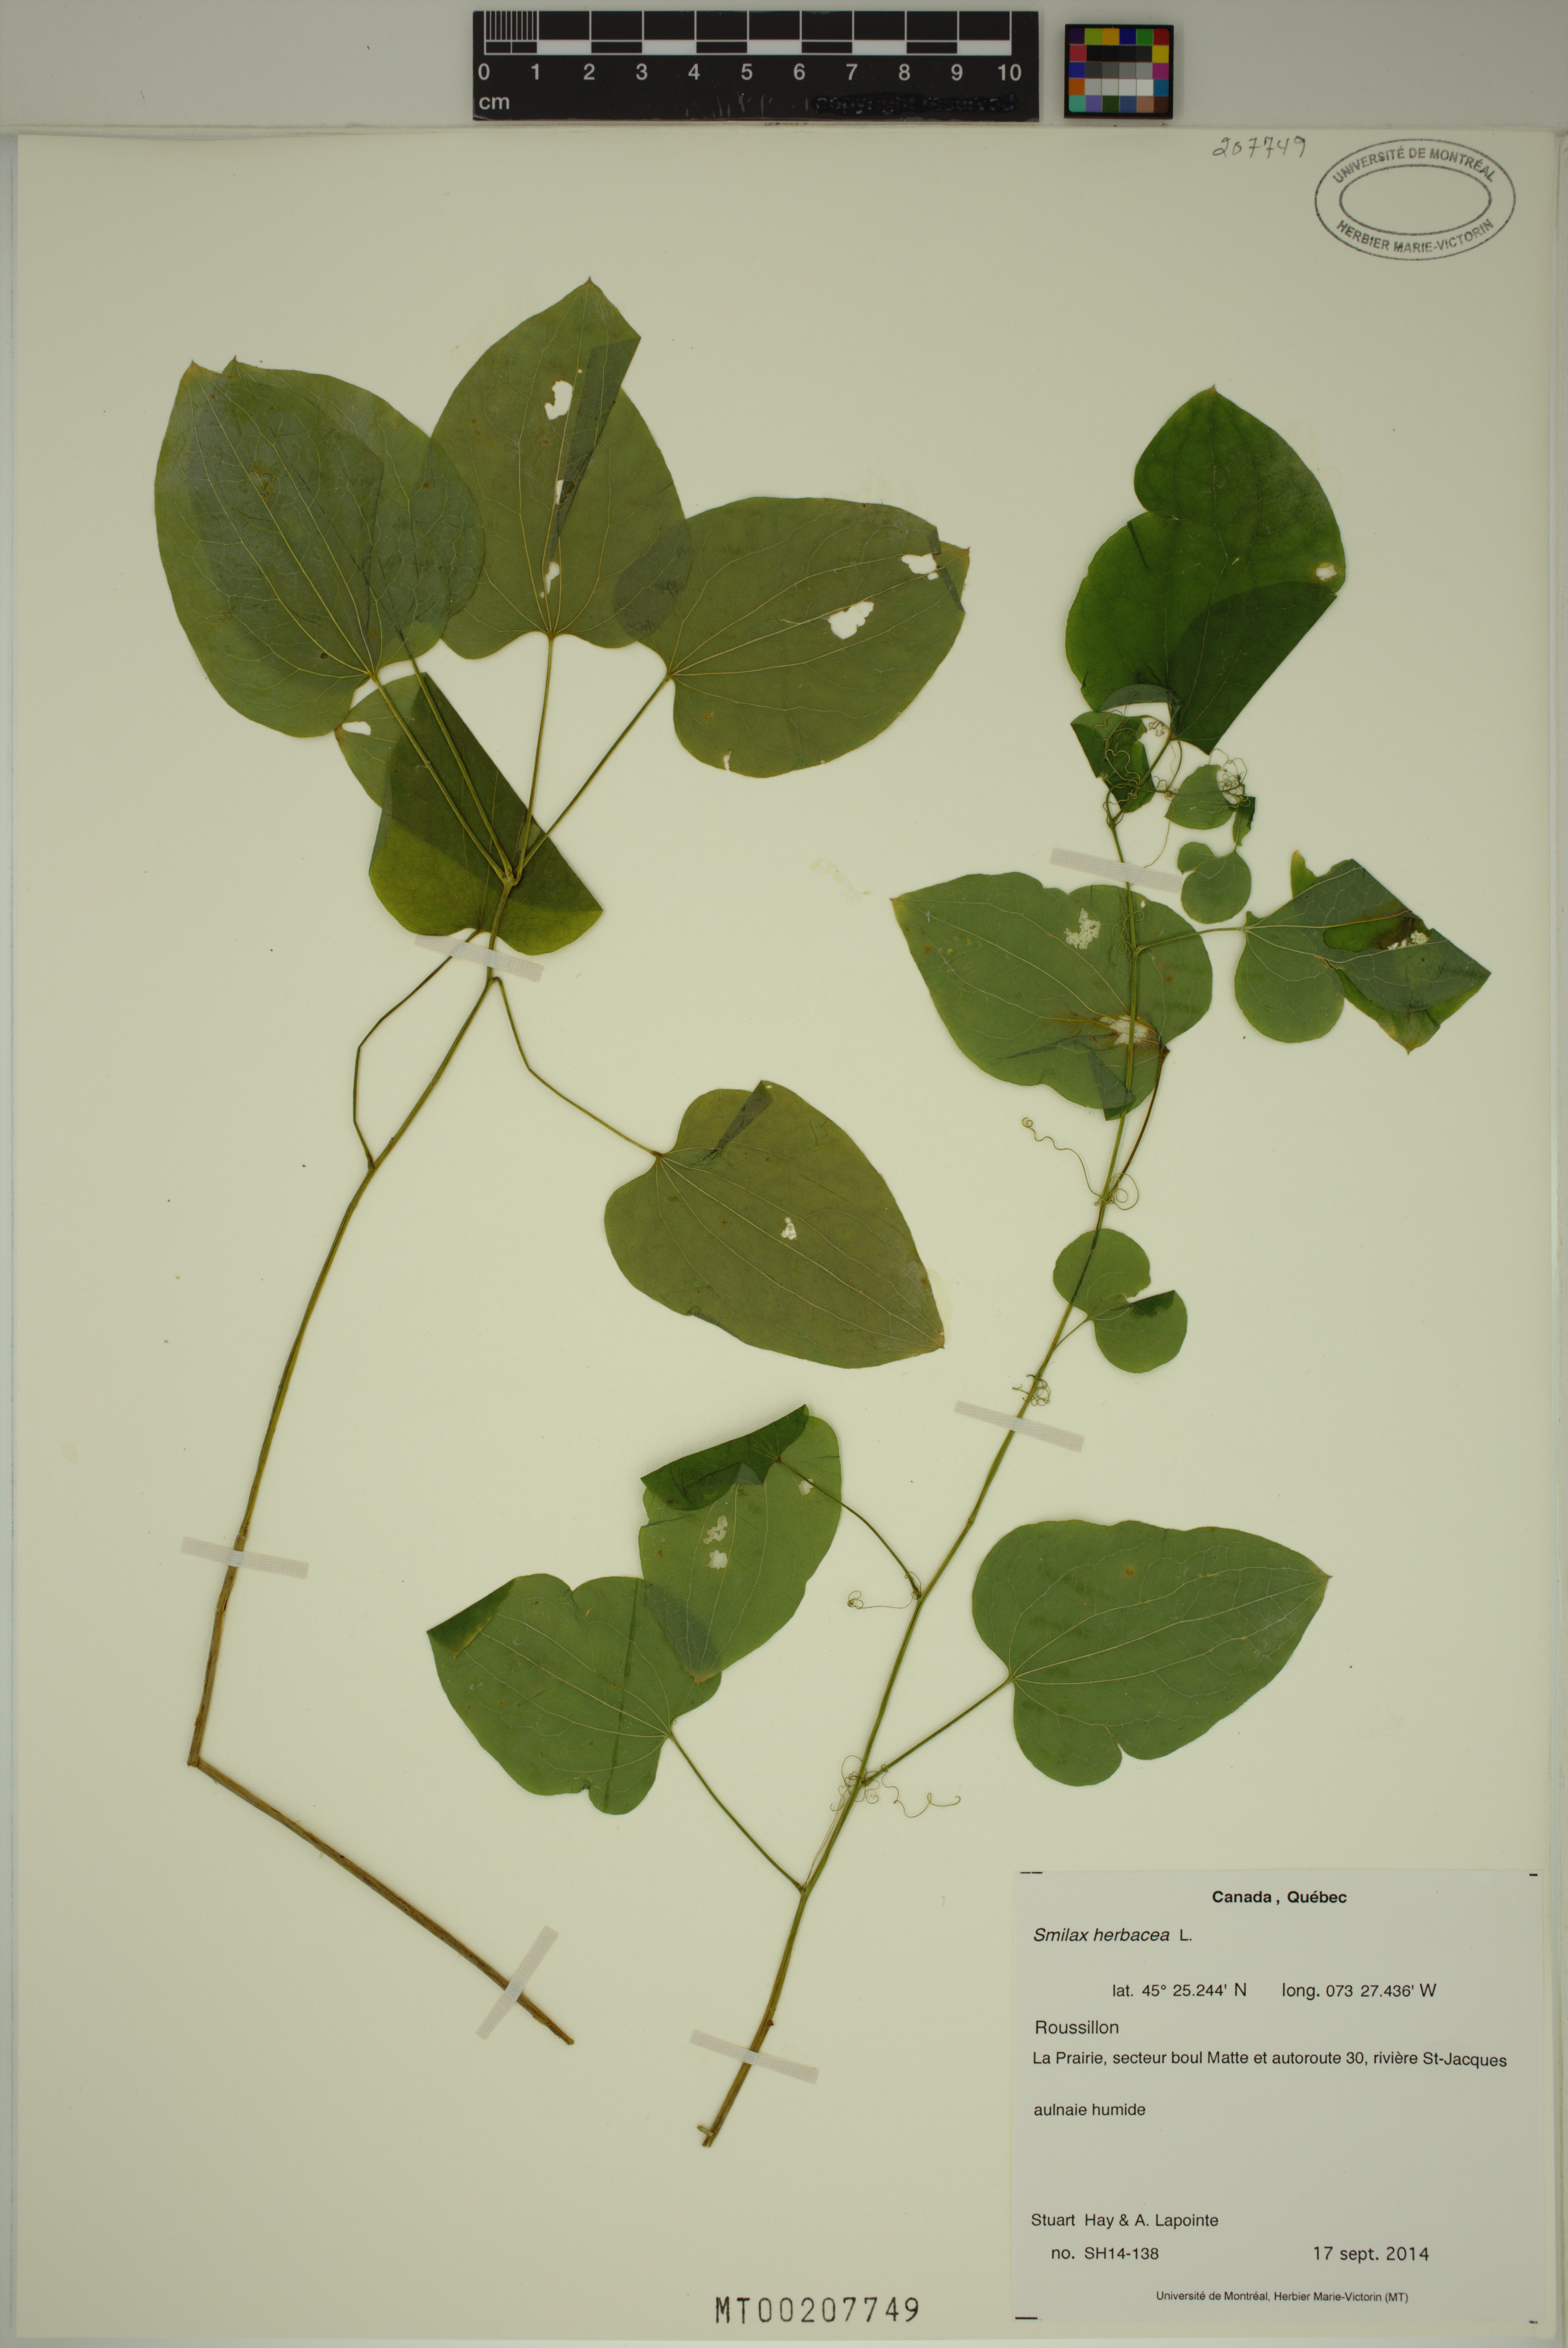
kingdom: Plantae
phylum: Tracheophyta
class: Liliopsida
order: Liliales
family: Smilacaceae
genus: Smilax
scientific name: Smilax herbacea
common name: Jacob's-ladder
